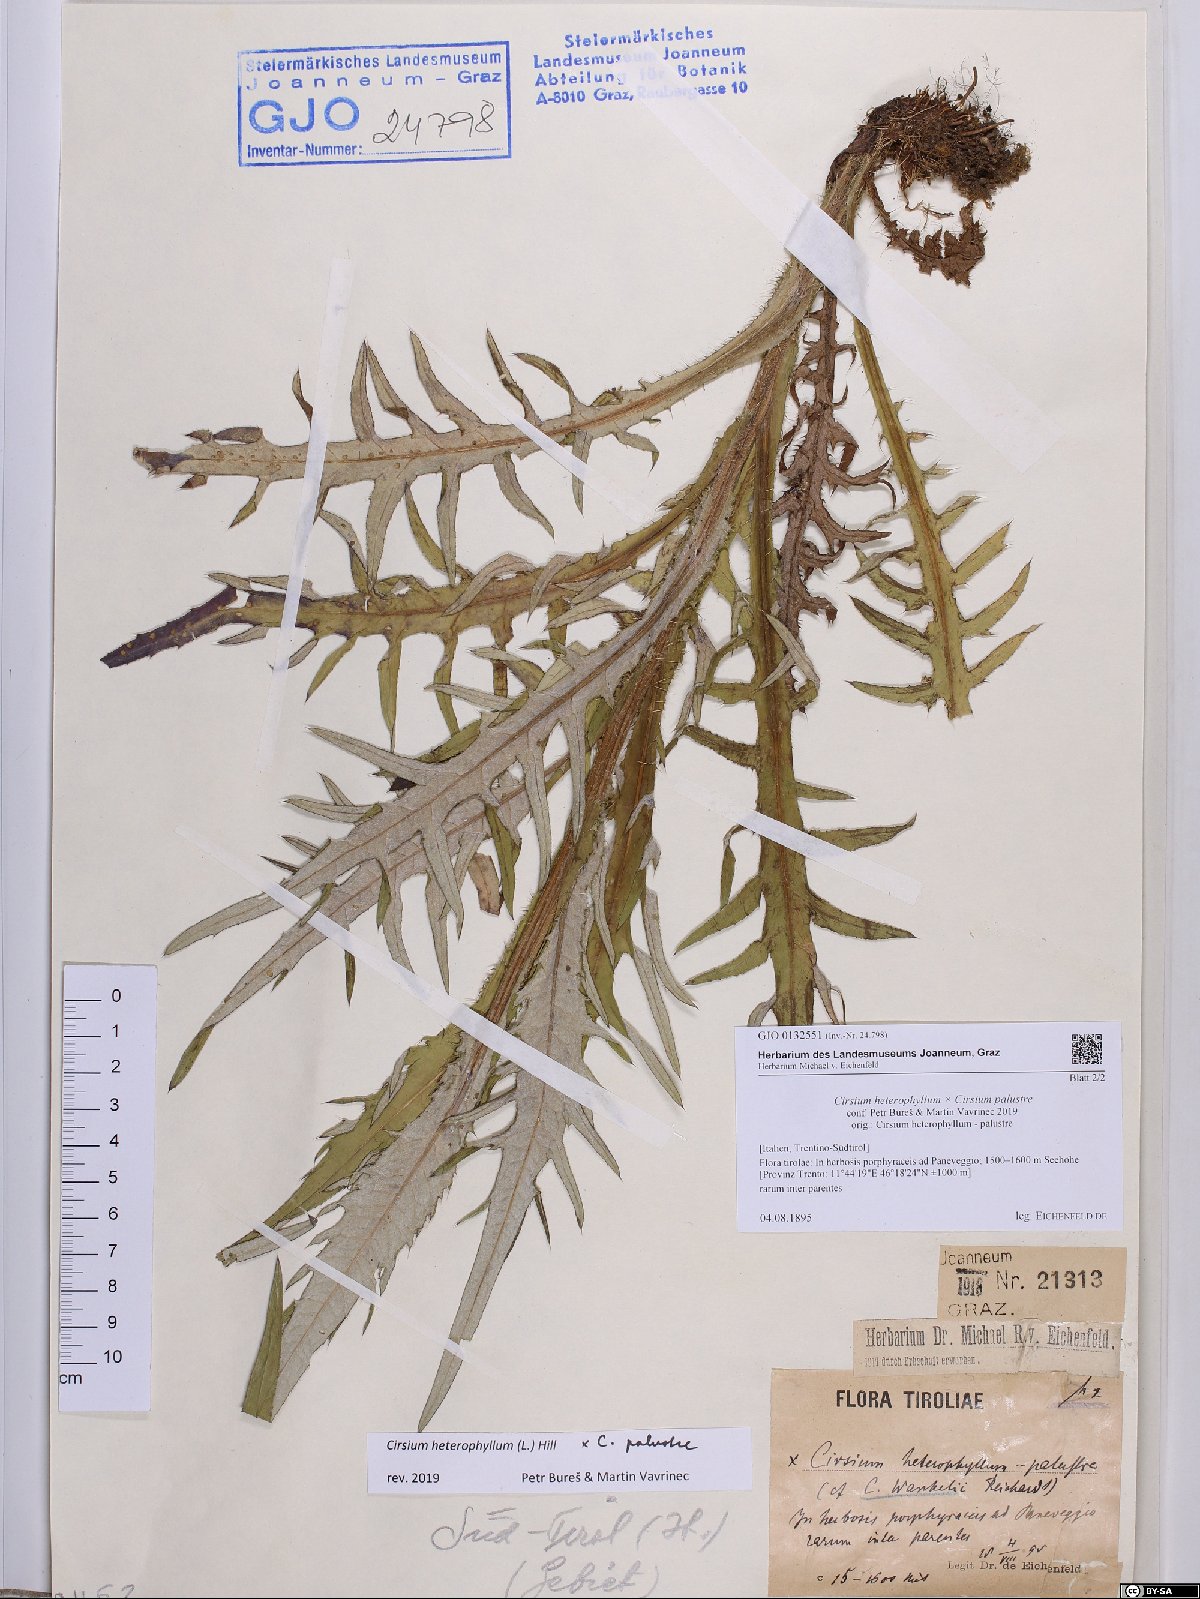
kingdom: Plantae
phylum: Tracheophyta
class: Magnoliopsida
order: Asterales
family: Asteraceae
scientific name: Asteraceae
